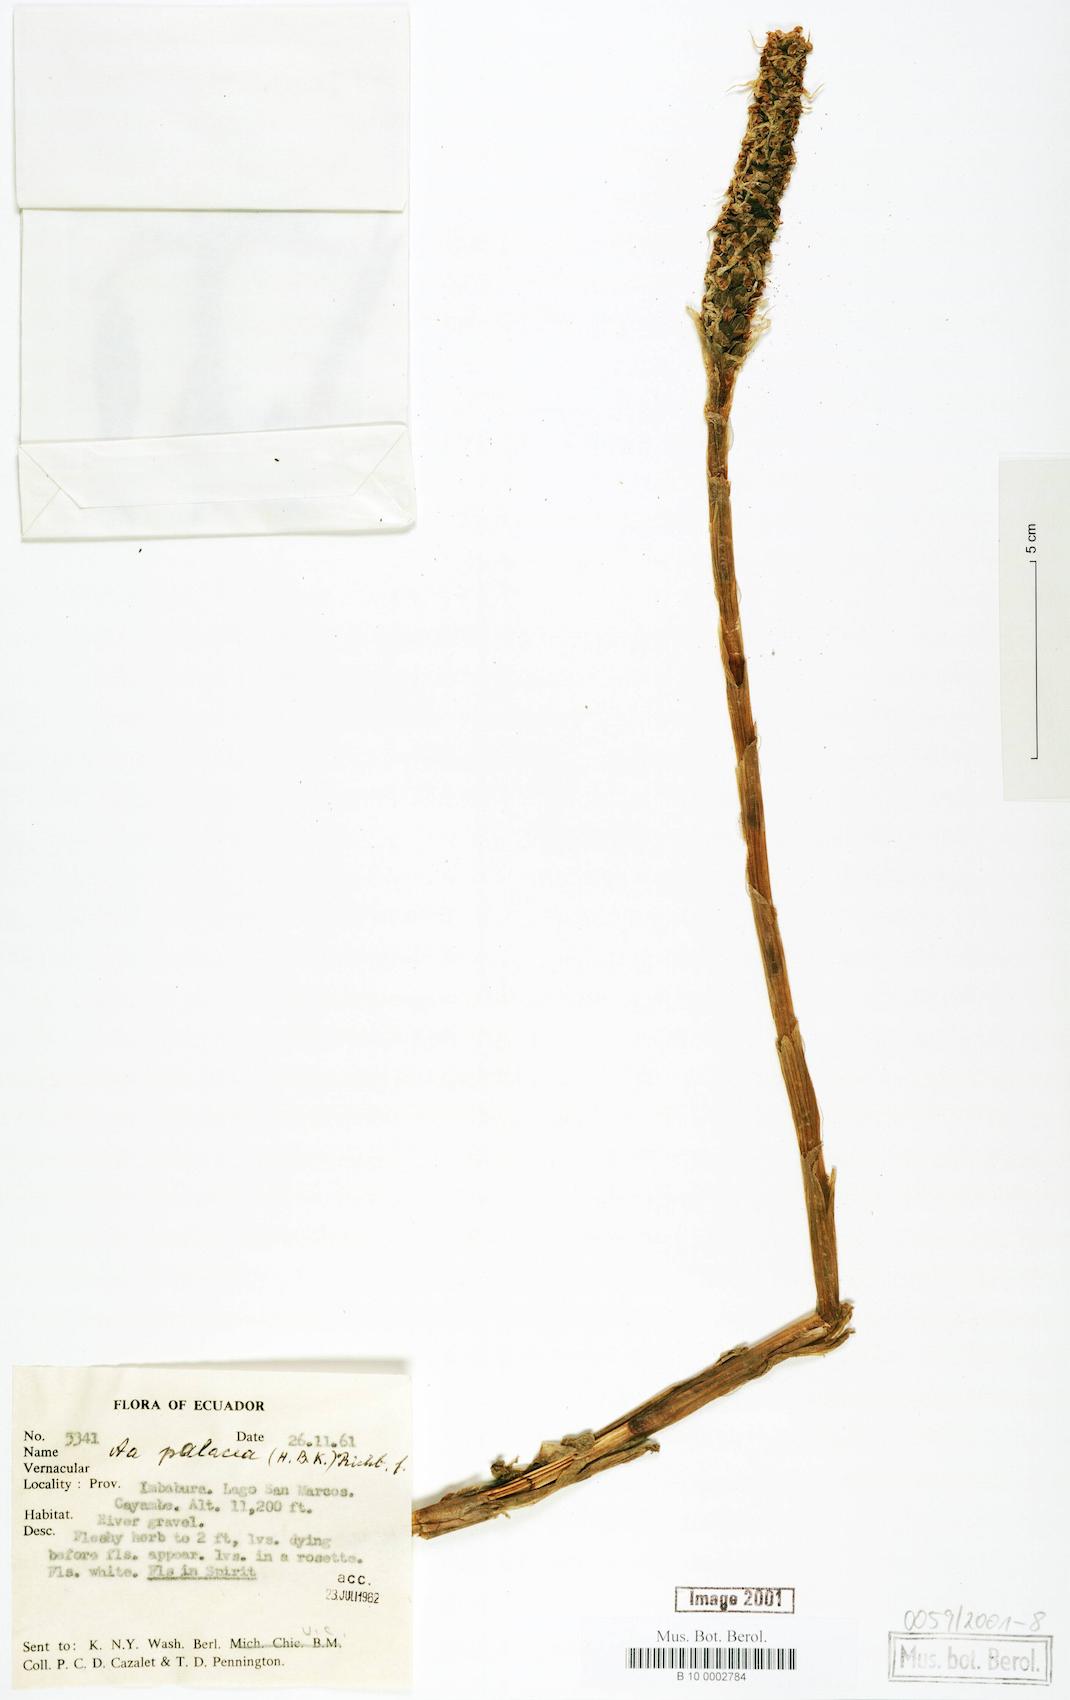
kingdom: Plantae
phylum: Tracheophyta
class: Liliopsida
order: Asparagales
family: Orchidaceae
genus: Aa
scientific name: Aa paleacea
